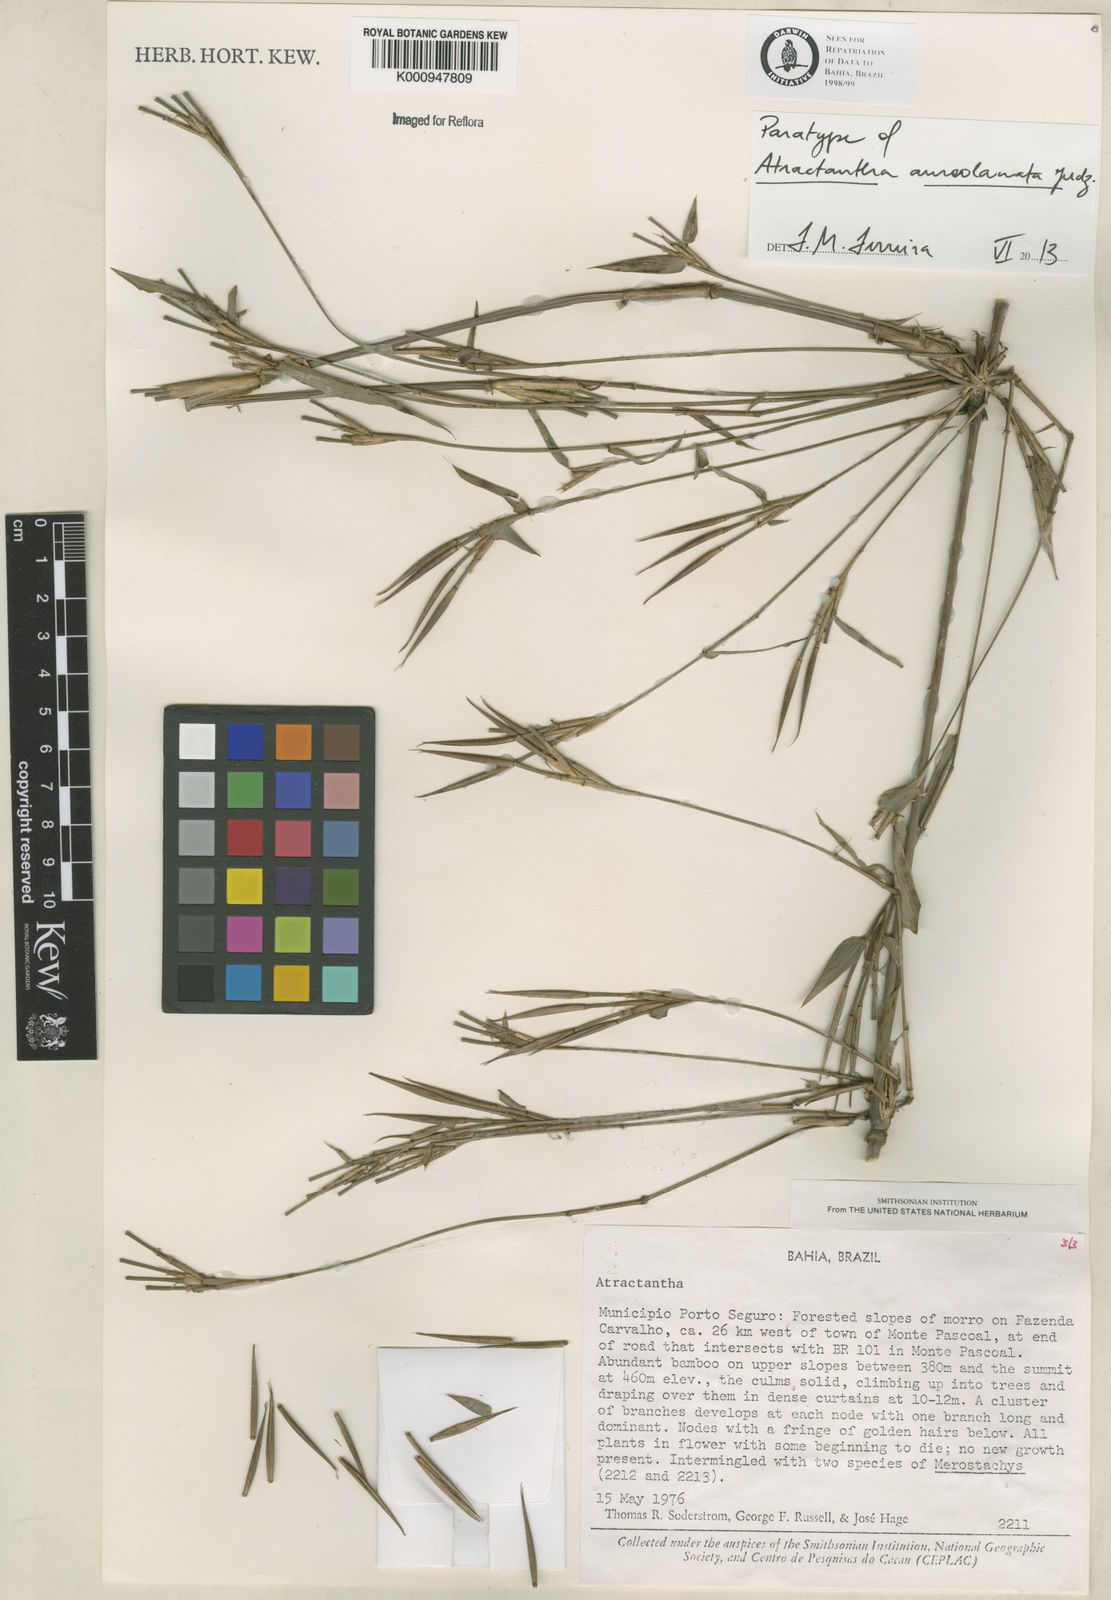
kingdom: Plantae
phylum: Tracheophyta
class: Liliopsida
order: Poales
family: Poaceae
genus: Atractantha
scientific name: Atractantha aureolanata
